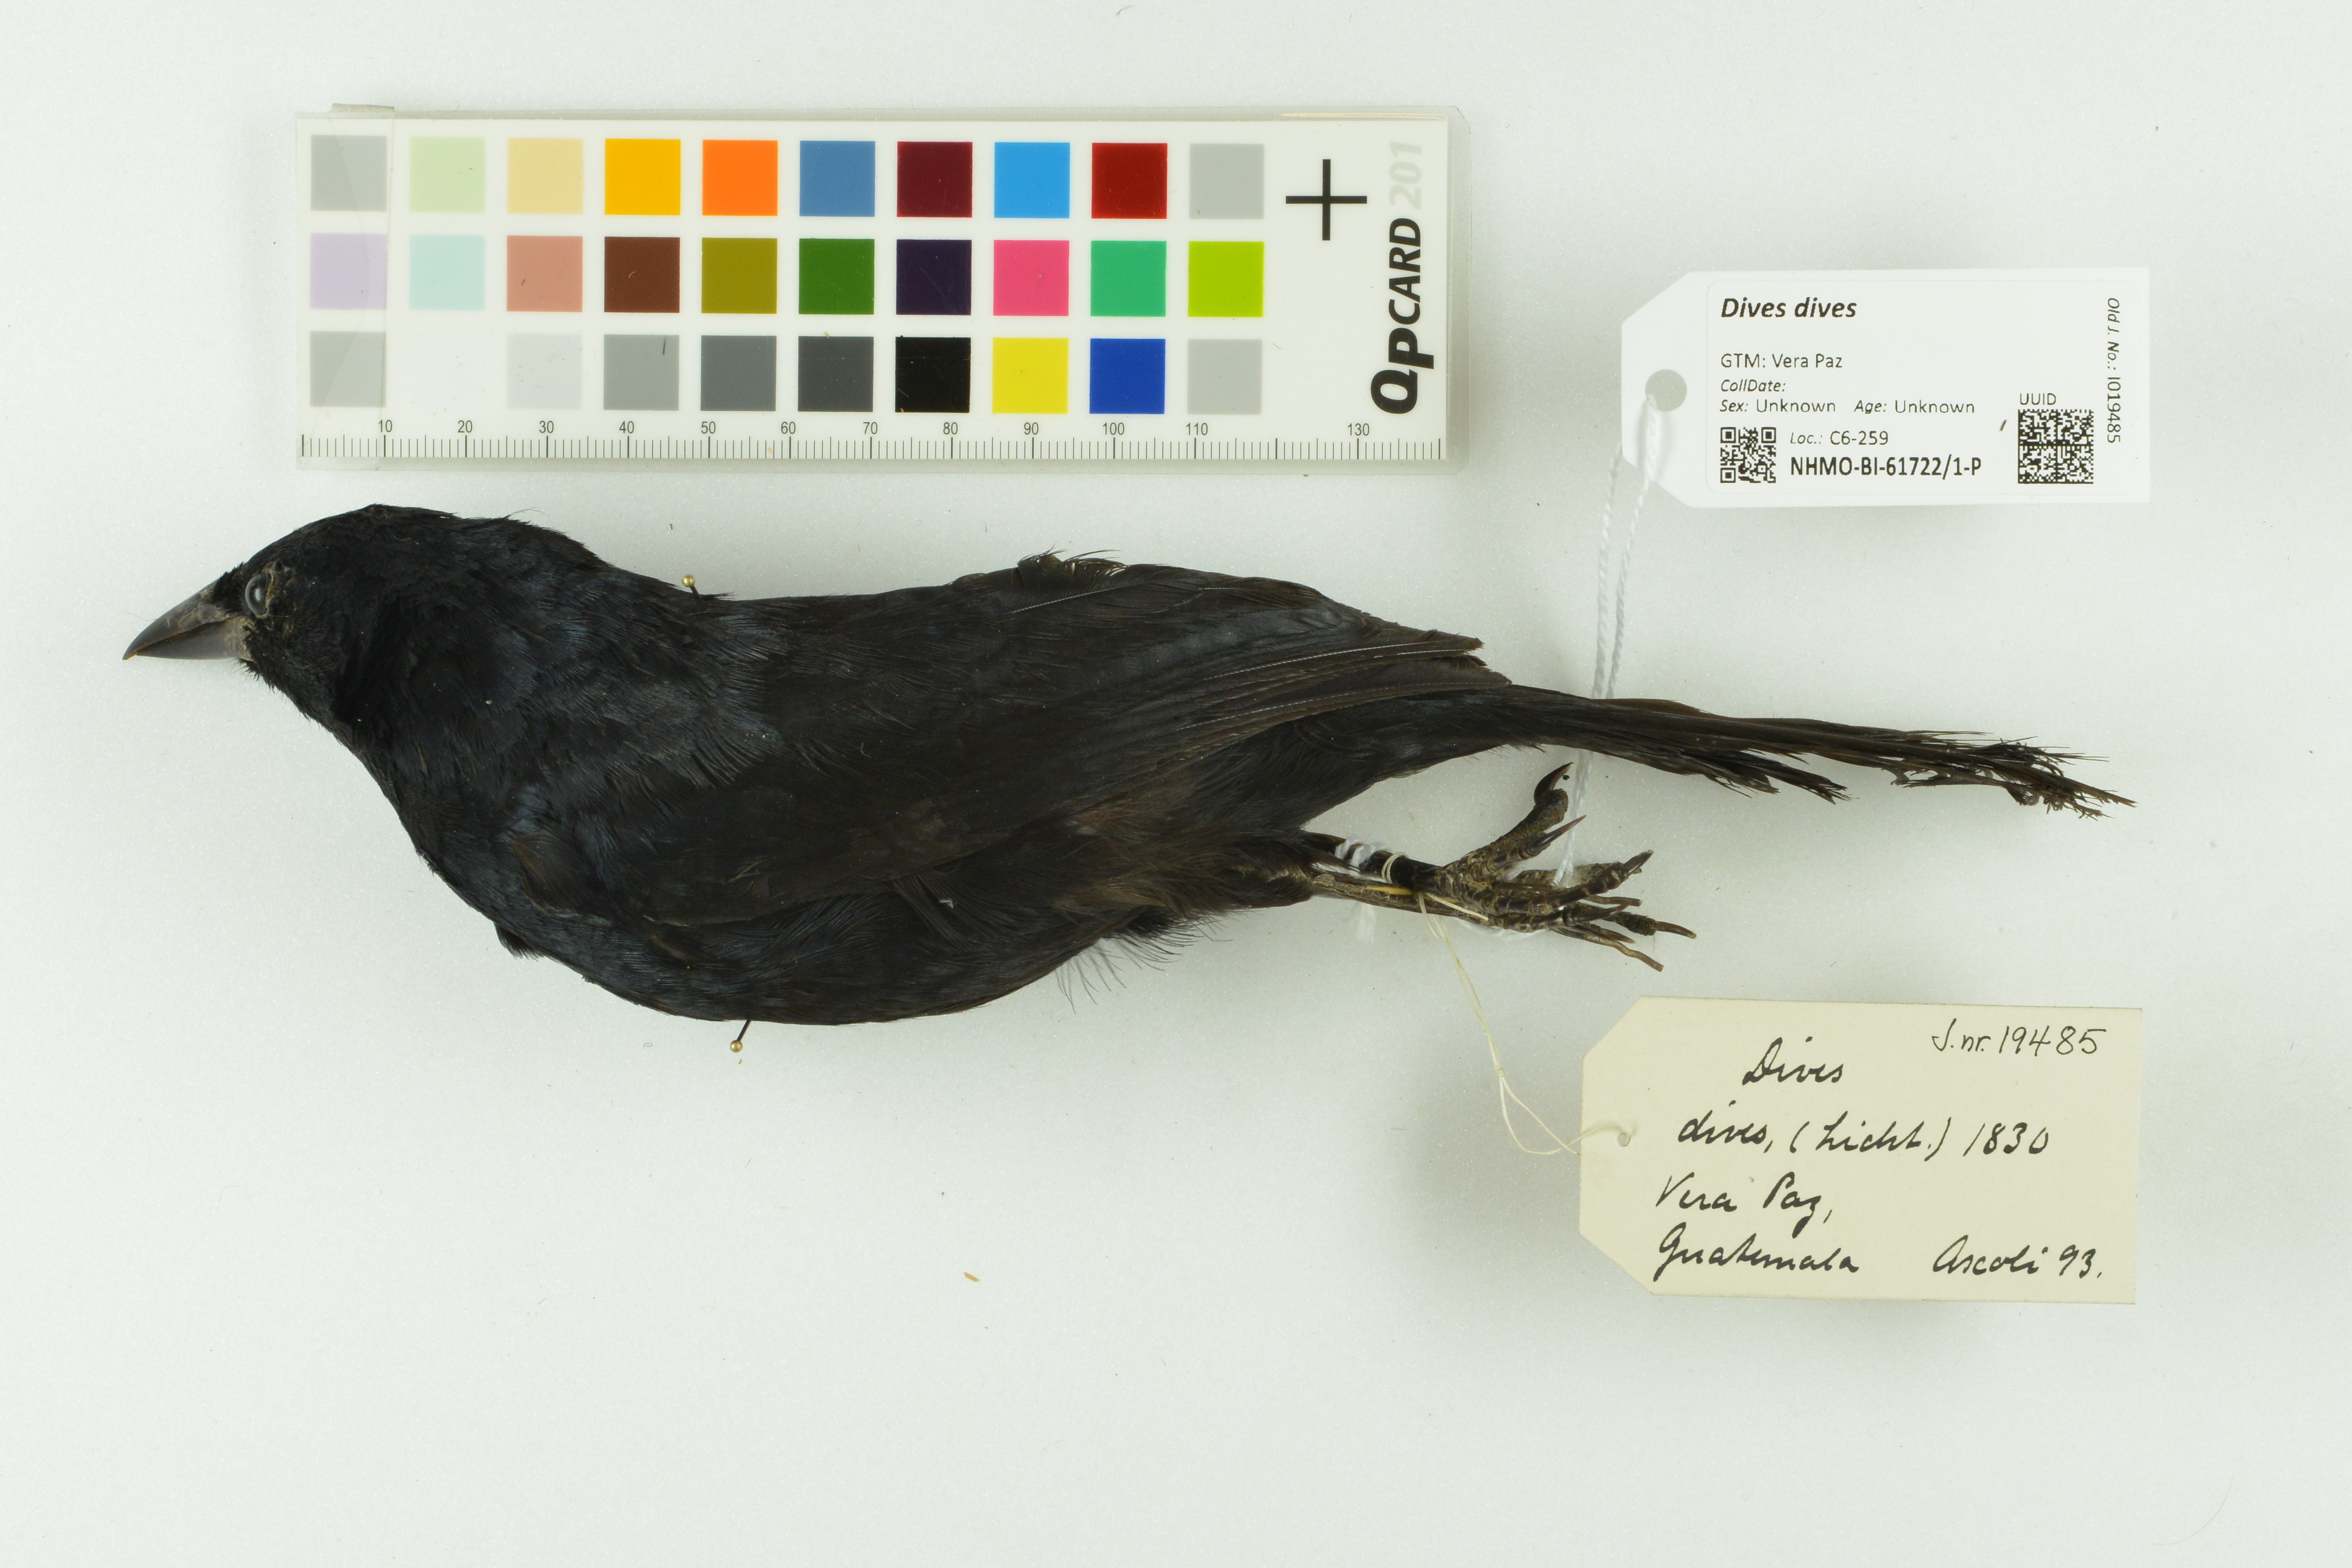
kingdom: Animalia
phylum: Chordata
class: Aves
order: Passeriformes
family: Icteridae
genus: Dives
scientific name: Dives dives
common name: Melodious blackbird
